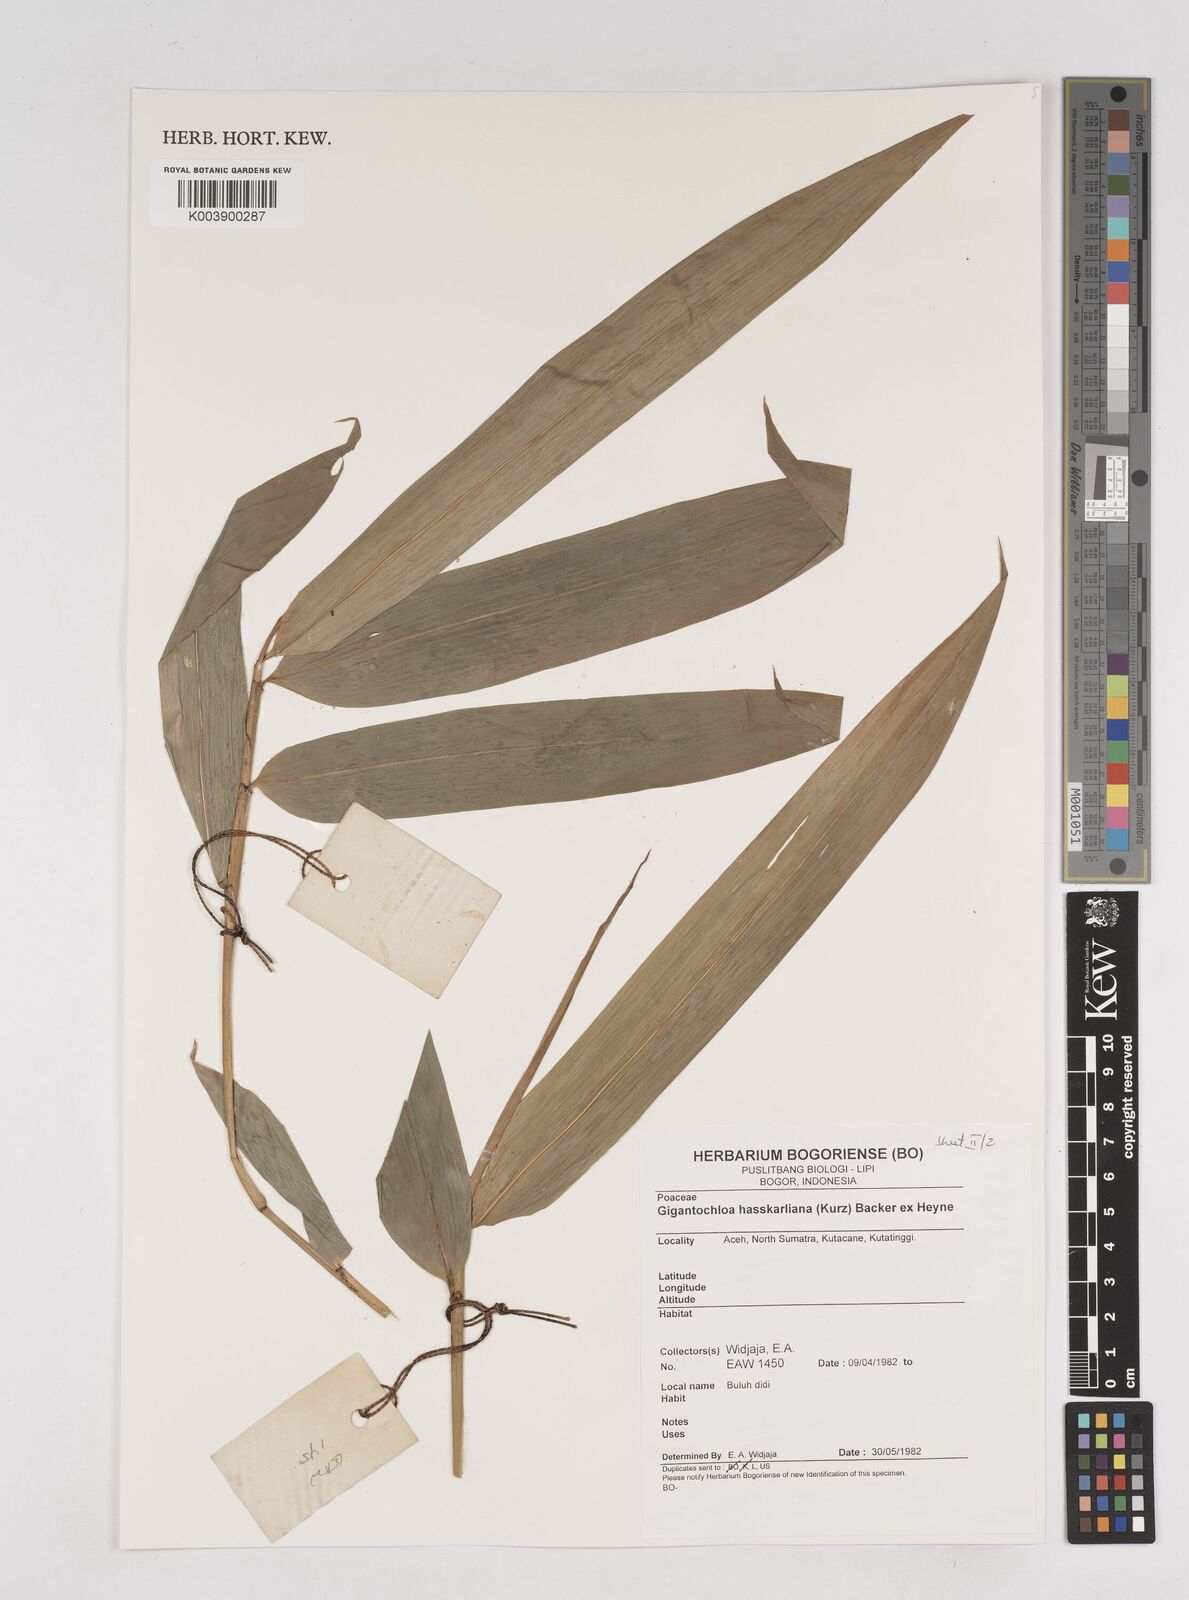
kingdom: Plantae
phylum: Tracheophyta
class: Liliopsida
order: Poales
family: Poaceae
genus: Gigantochloa
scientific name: Gigantochloa hasskarliana
